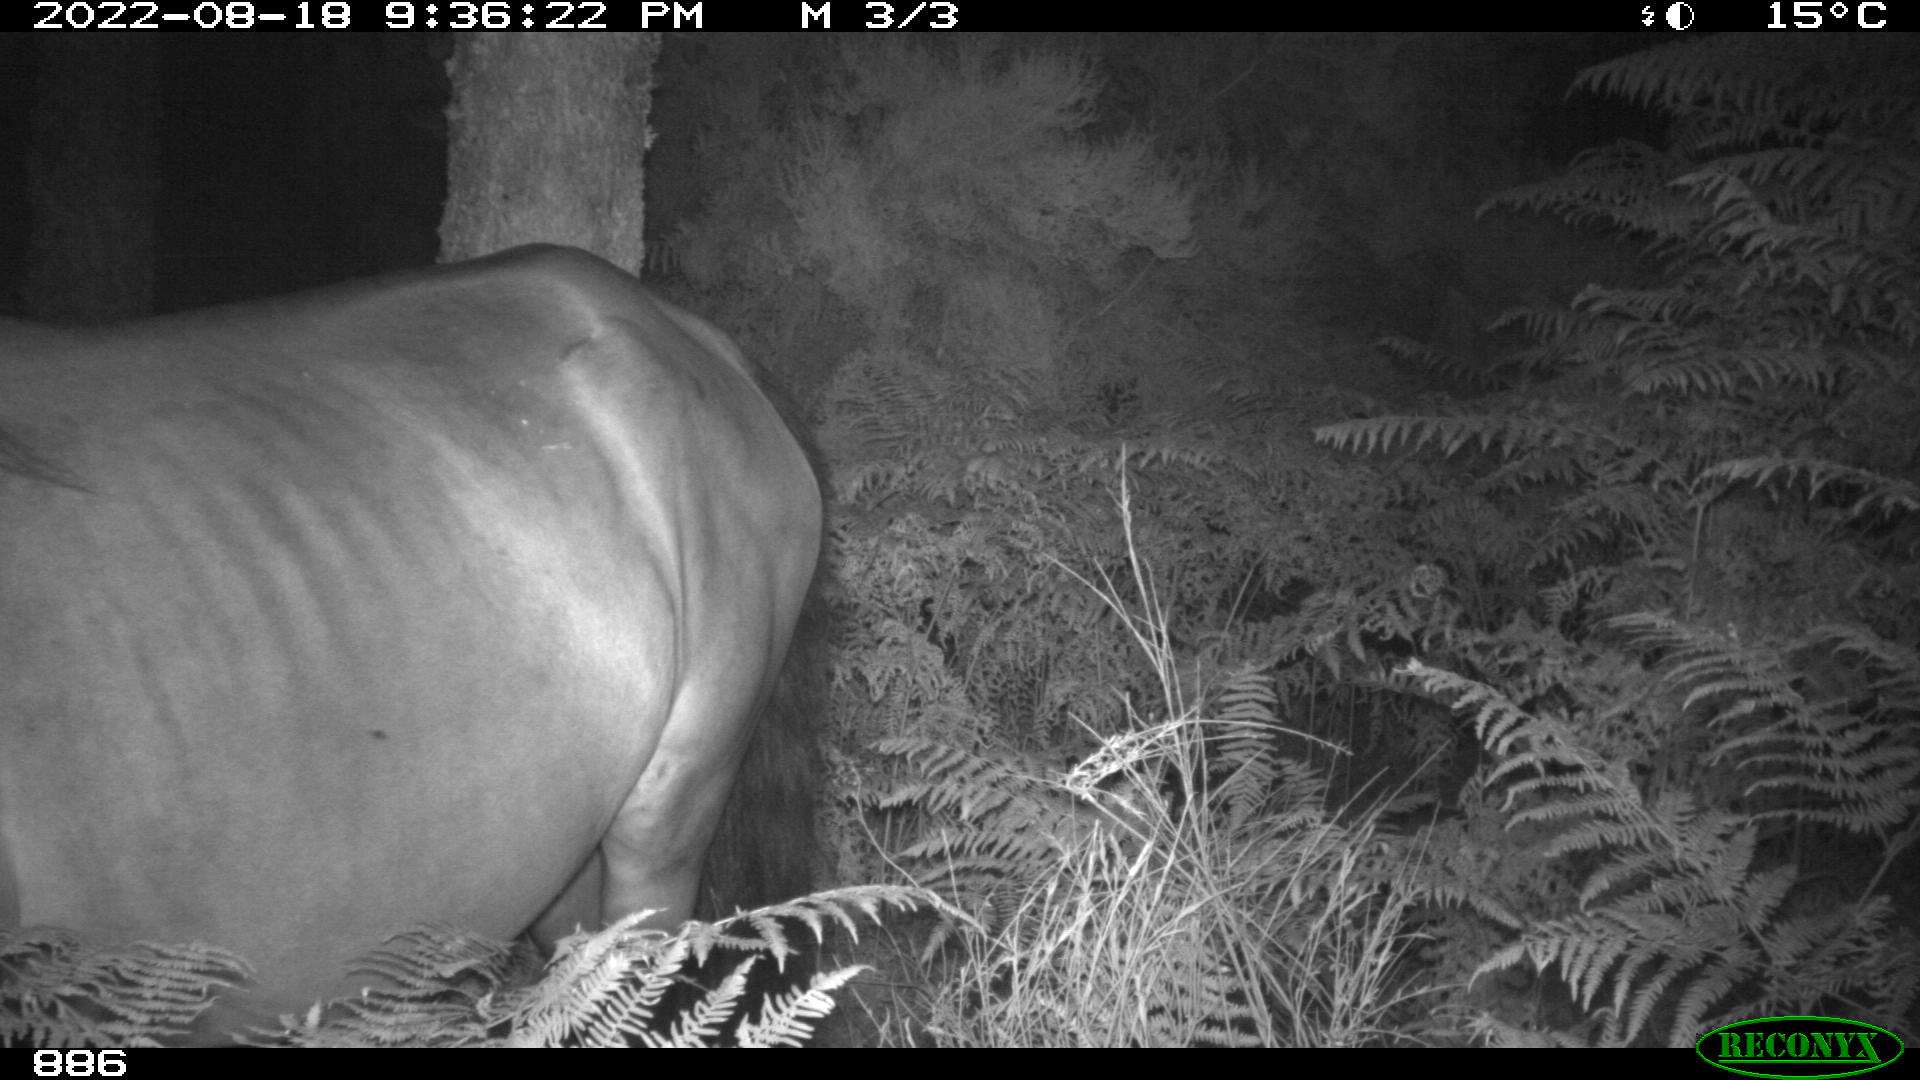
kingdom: Animalia
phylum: Chordata
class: Mammalia
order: Perissodactyla
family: Equidae
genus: Equus
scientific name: Equus caballus
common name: Horse
